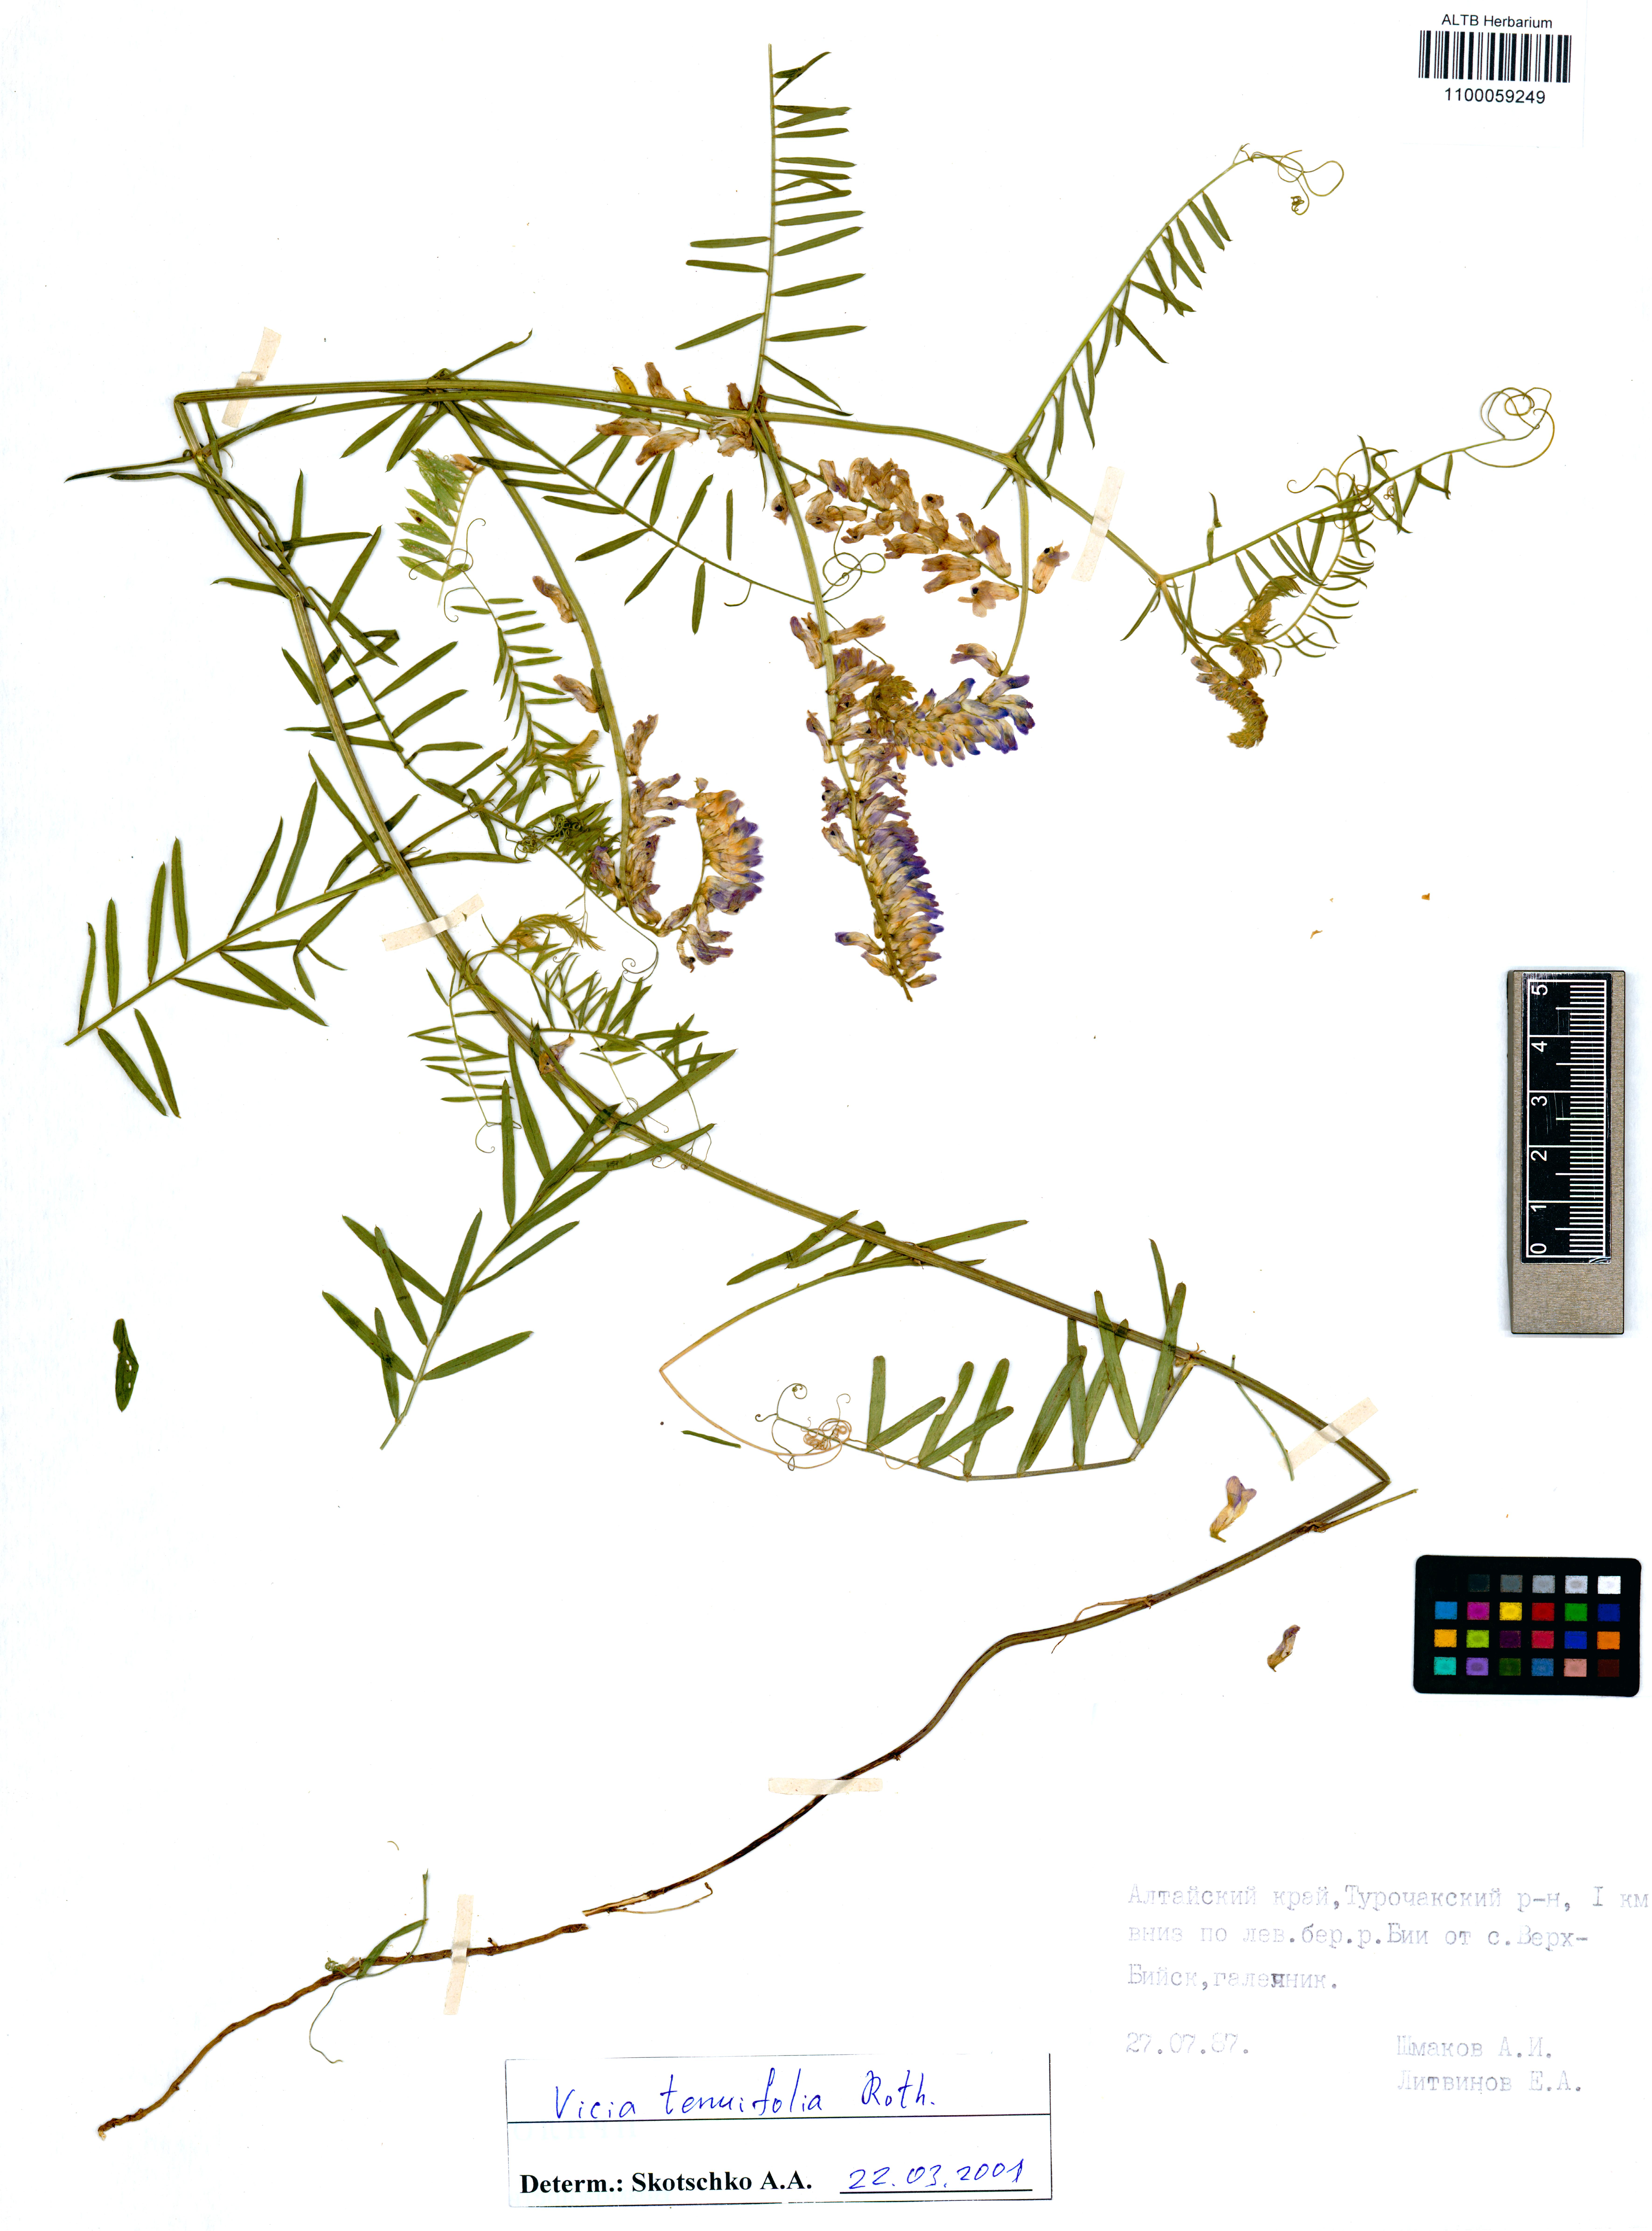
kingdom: Plantae
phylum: Tracheophyta
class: Magnoliopsida
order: Fabales
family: Fabaceae
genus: Vicia
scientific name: Vicia tenuifolia
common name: Fine-leaved vetch
